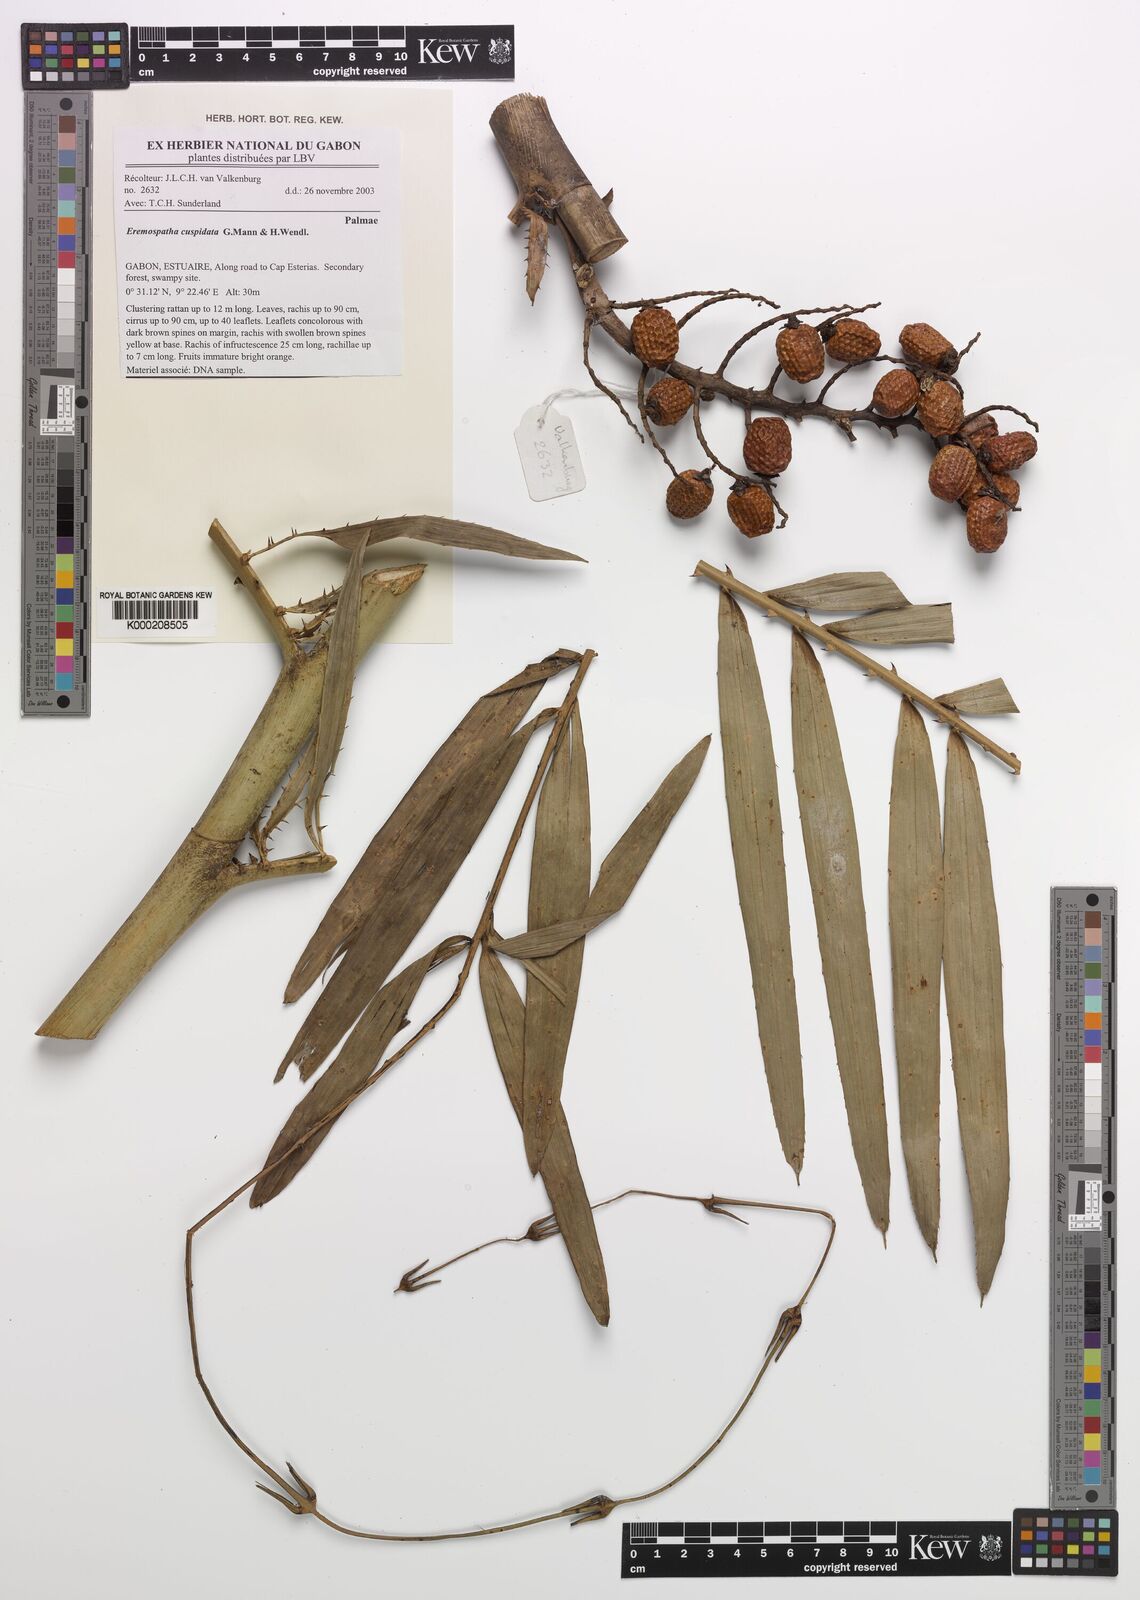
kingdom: Plantae
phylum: Tracheophyta
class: Liliopsida
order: Arecales
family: Arecaceae
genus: Eremospatha
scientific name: Eremospatha cuspidata
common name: Rattan
